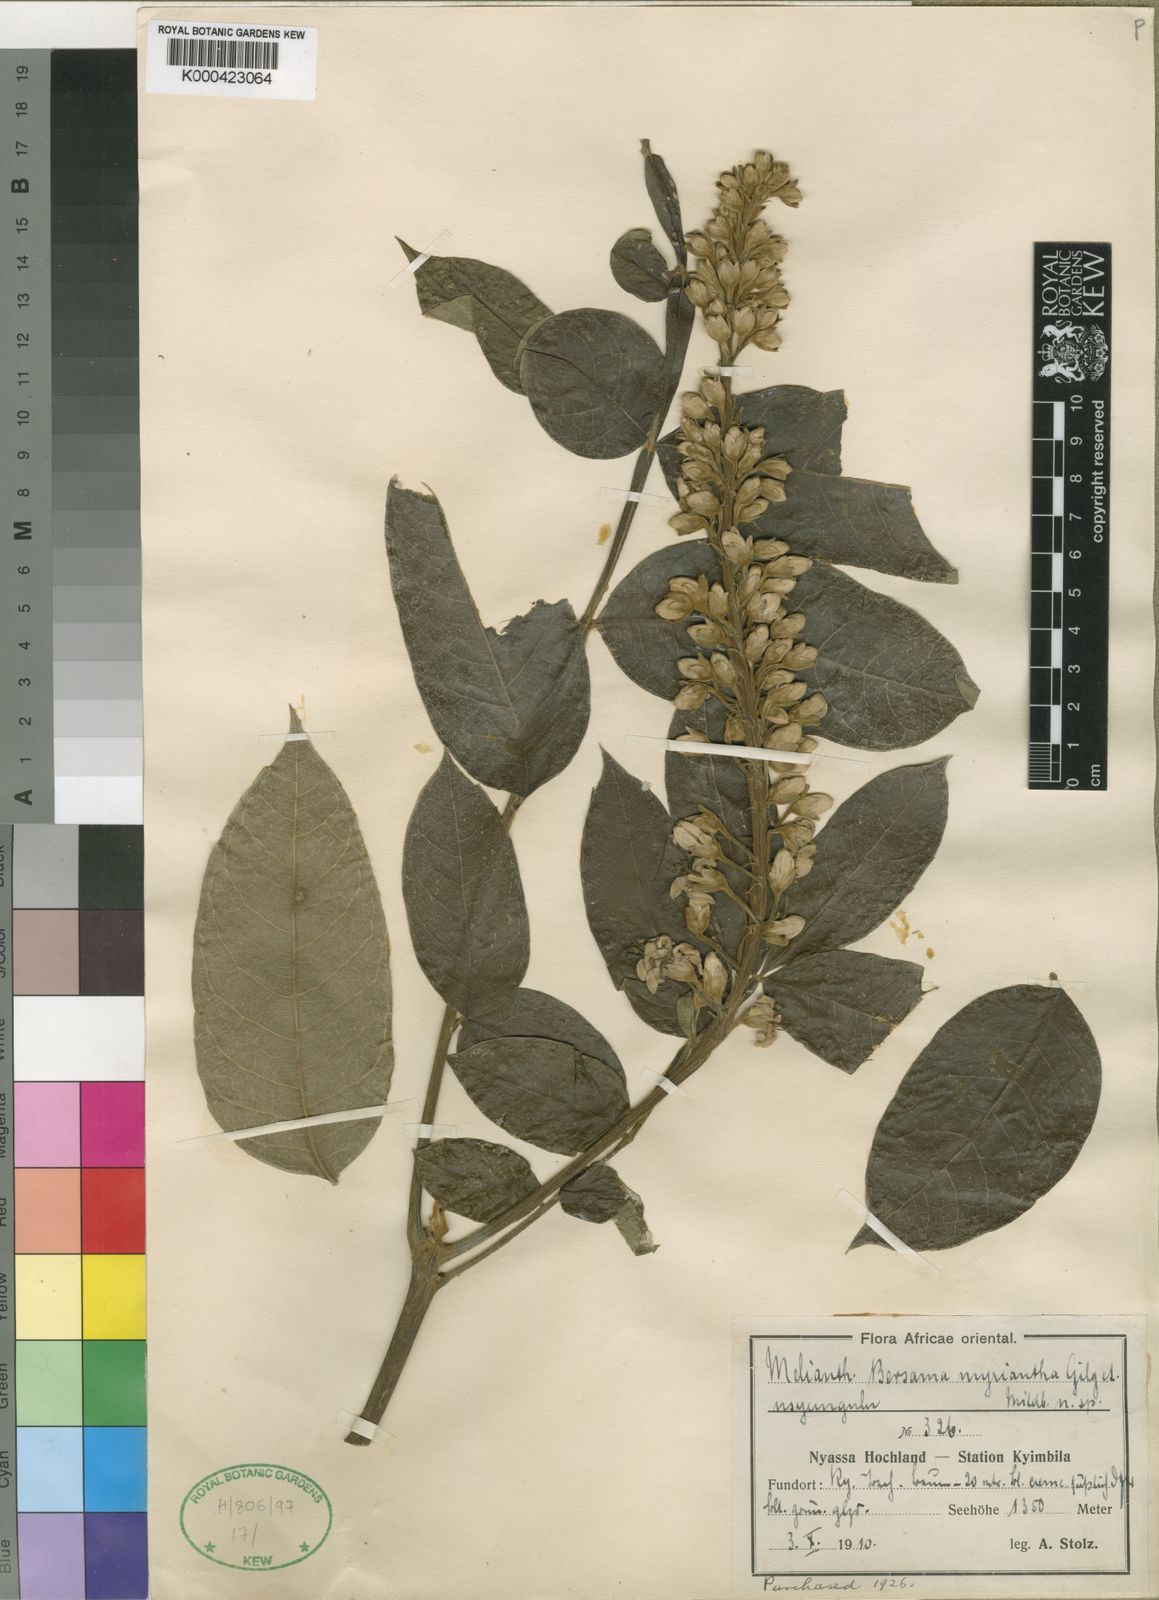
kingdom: Plantae
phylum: Tracheophyta
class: Magnoliopsida
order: Geraniales
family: Melianthaceae
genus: Bersama
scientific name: Bersama abyssinica
